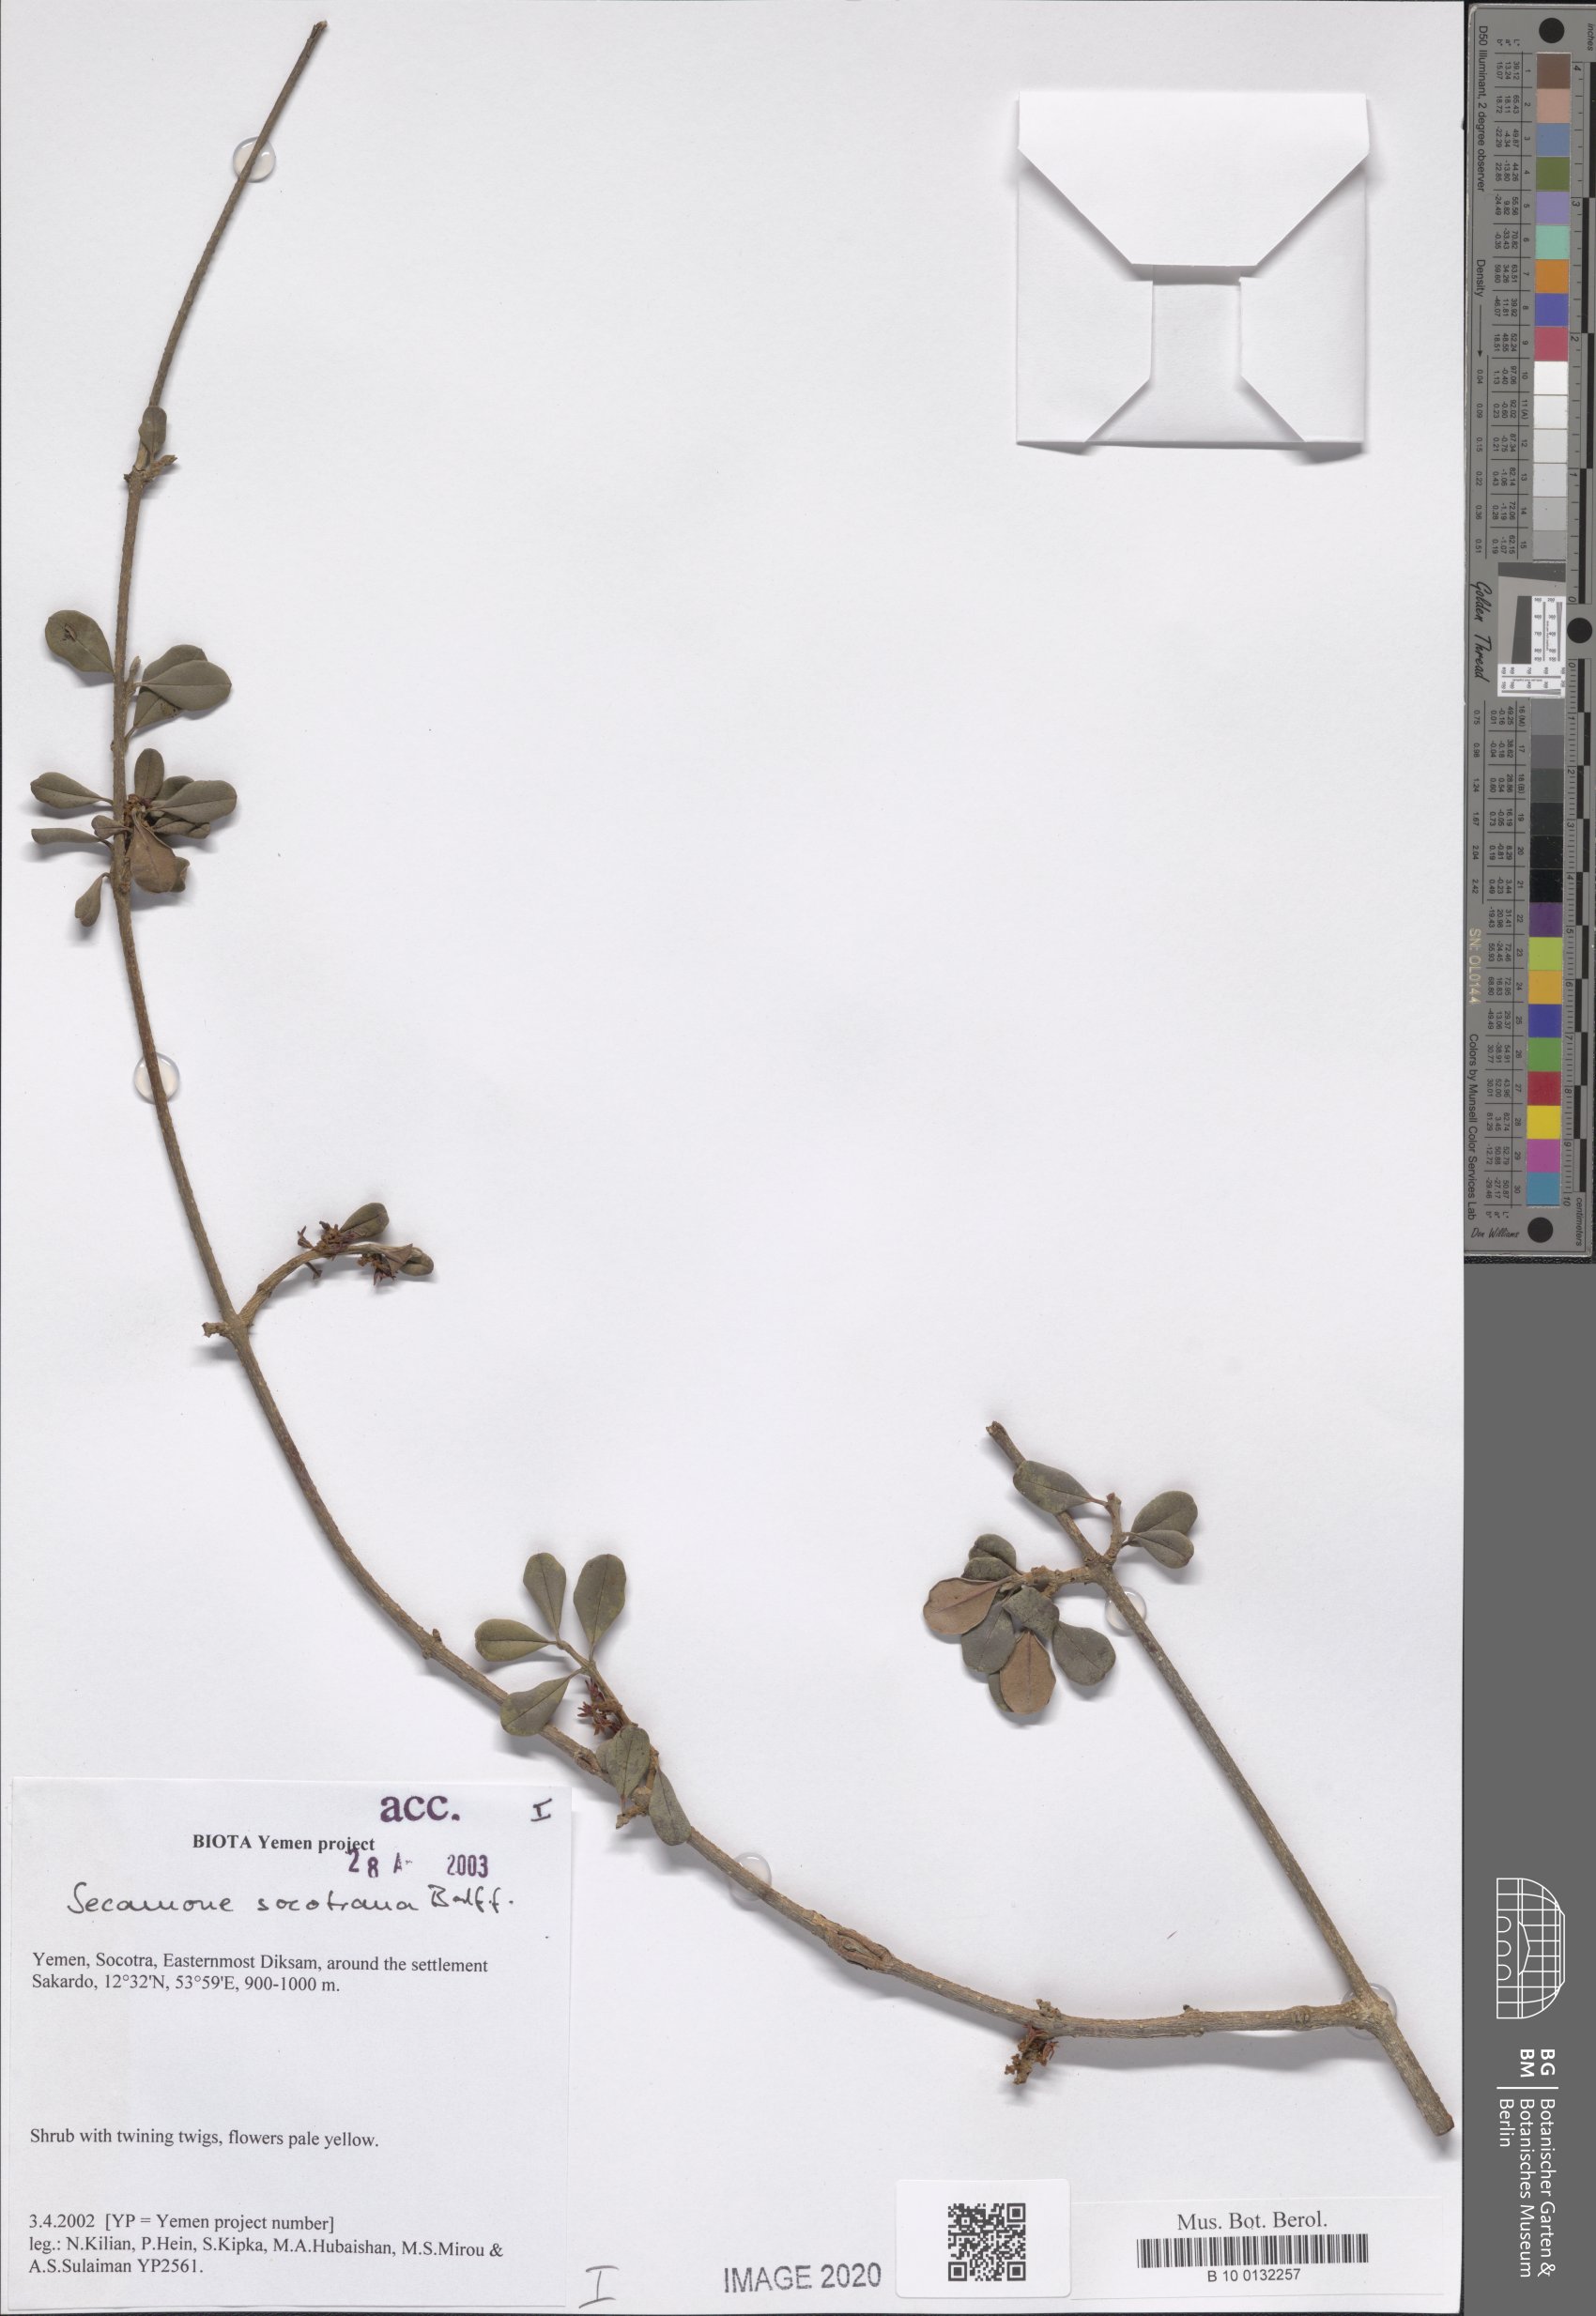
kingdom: Plantae
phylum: Tracheophyta
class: Magnoliopsida
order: Gentianales
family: Apocynaceae
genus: Secamone
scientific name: Secamone socotrana
